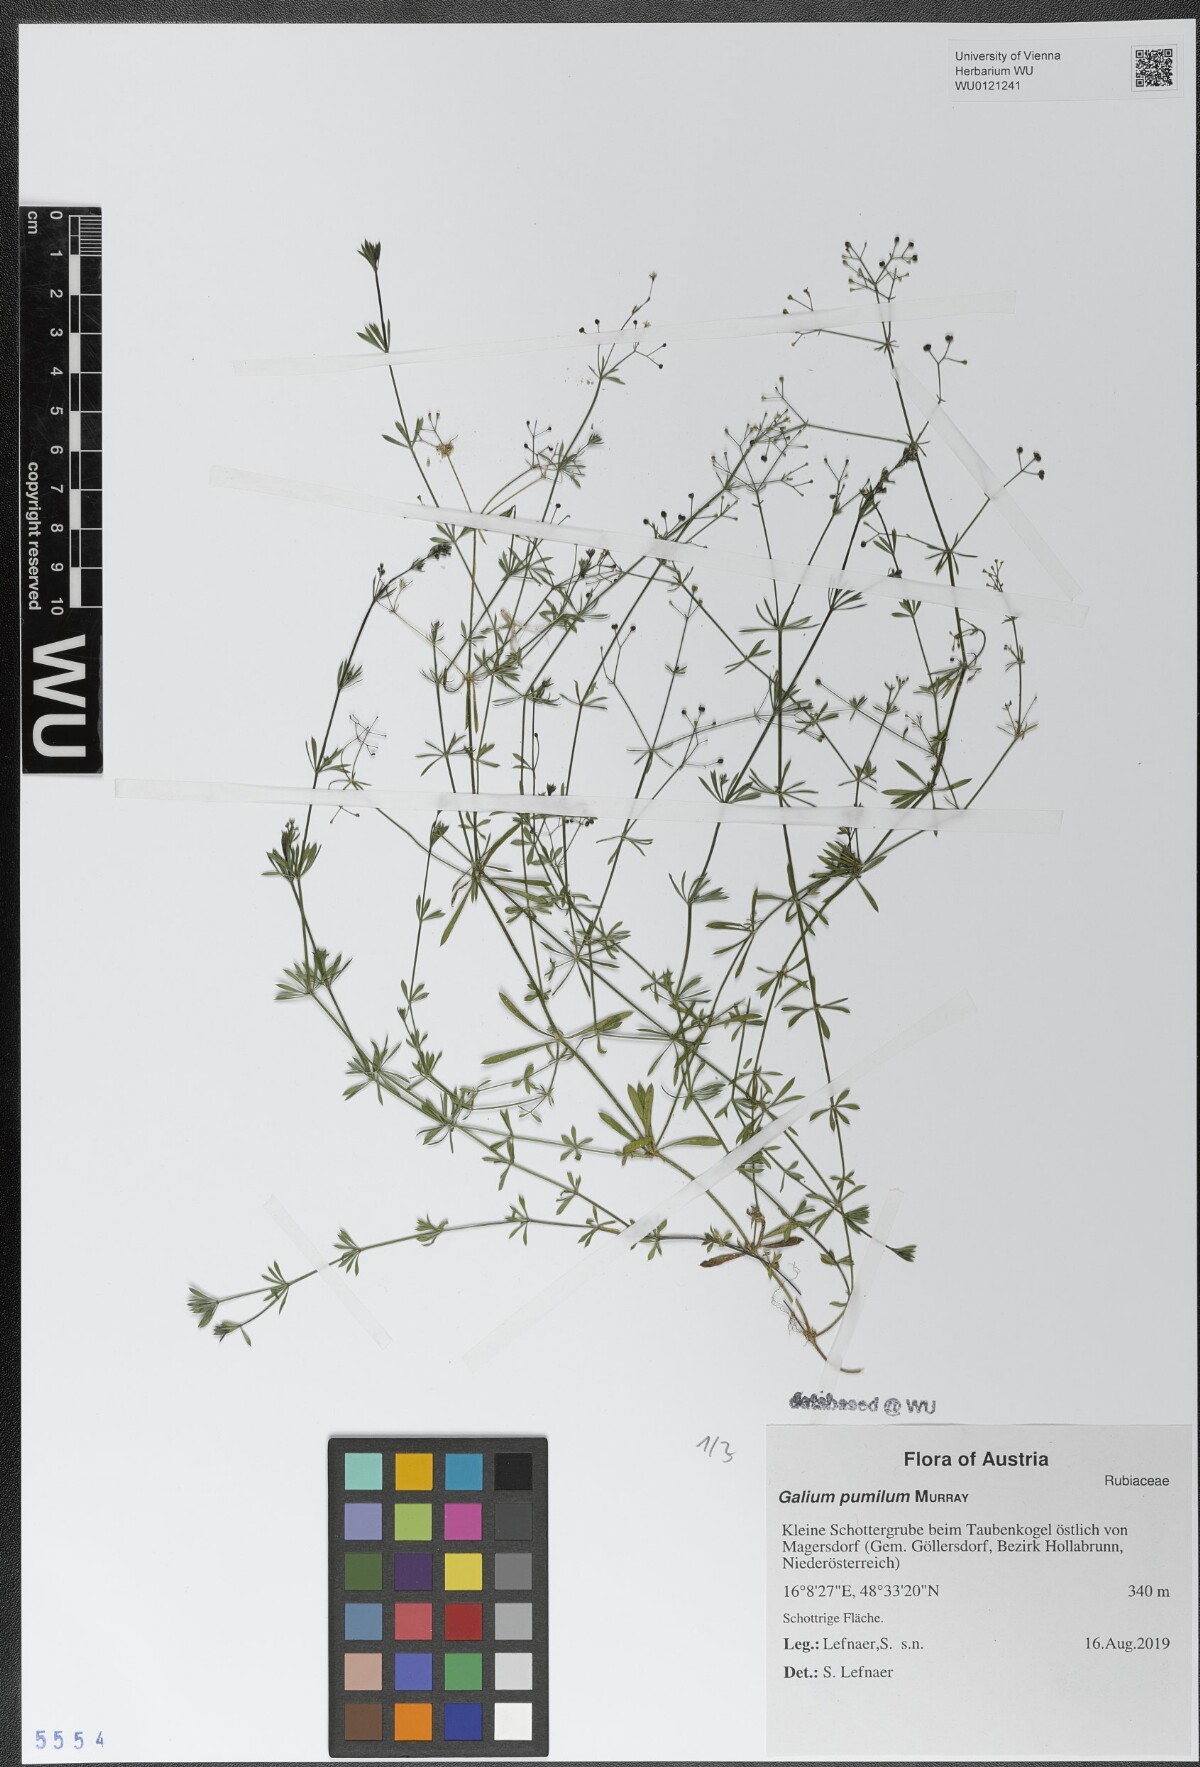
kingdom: Plantae
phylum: Tracheophyta
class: Magnoliopsida
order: Gentianales
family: Rubiaceae
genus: Galium
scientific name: Galium pumilum
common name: Slender bedstraw
